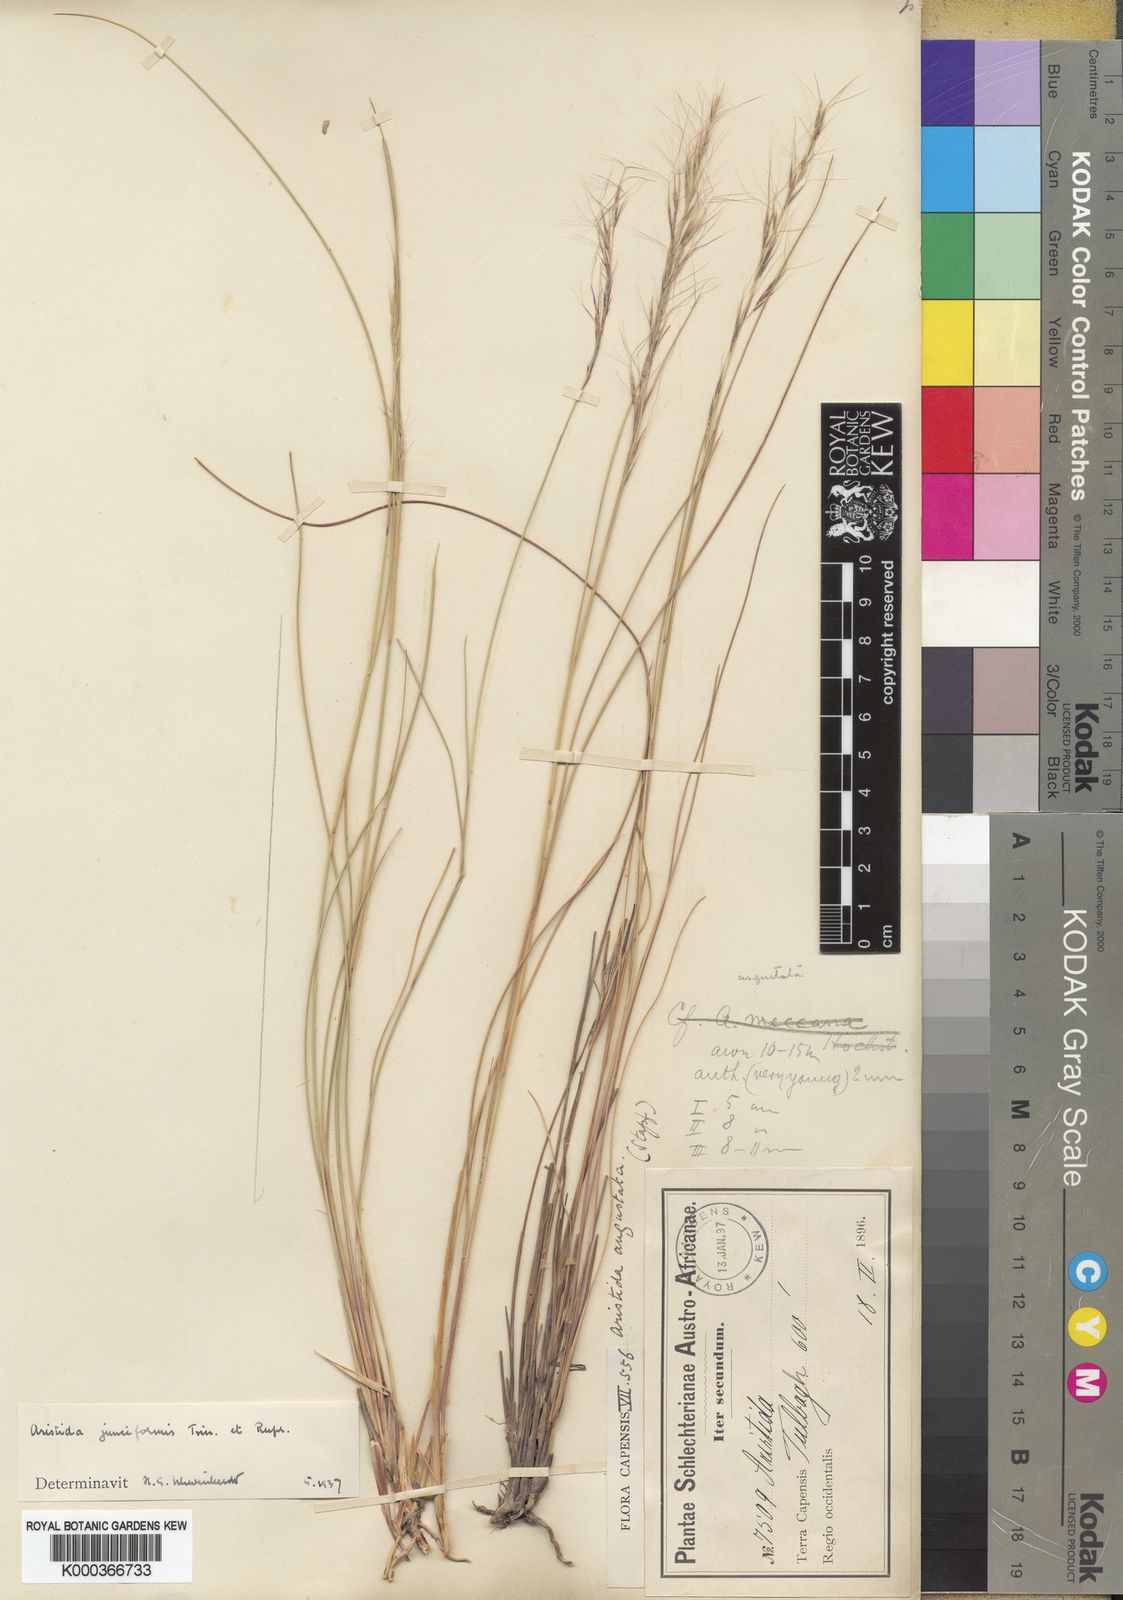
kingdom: Plantae
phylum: Tracheophyta
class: Liliopsida
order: Poales
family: Poaceae
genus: Aristida
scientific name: Aristida junciformis
